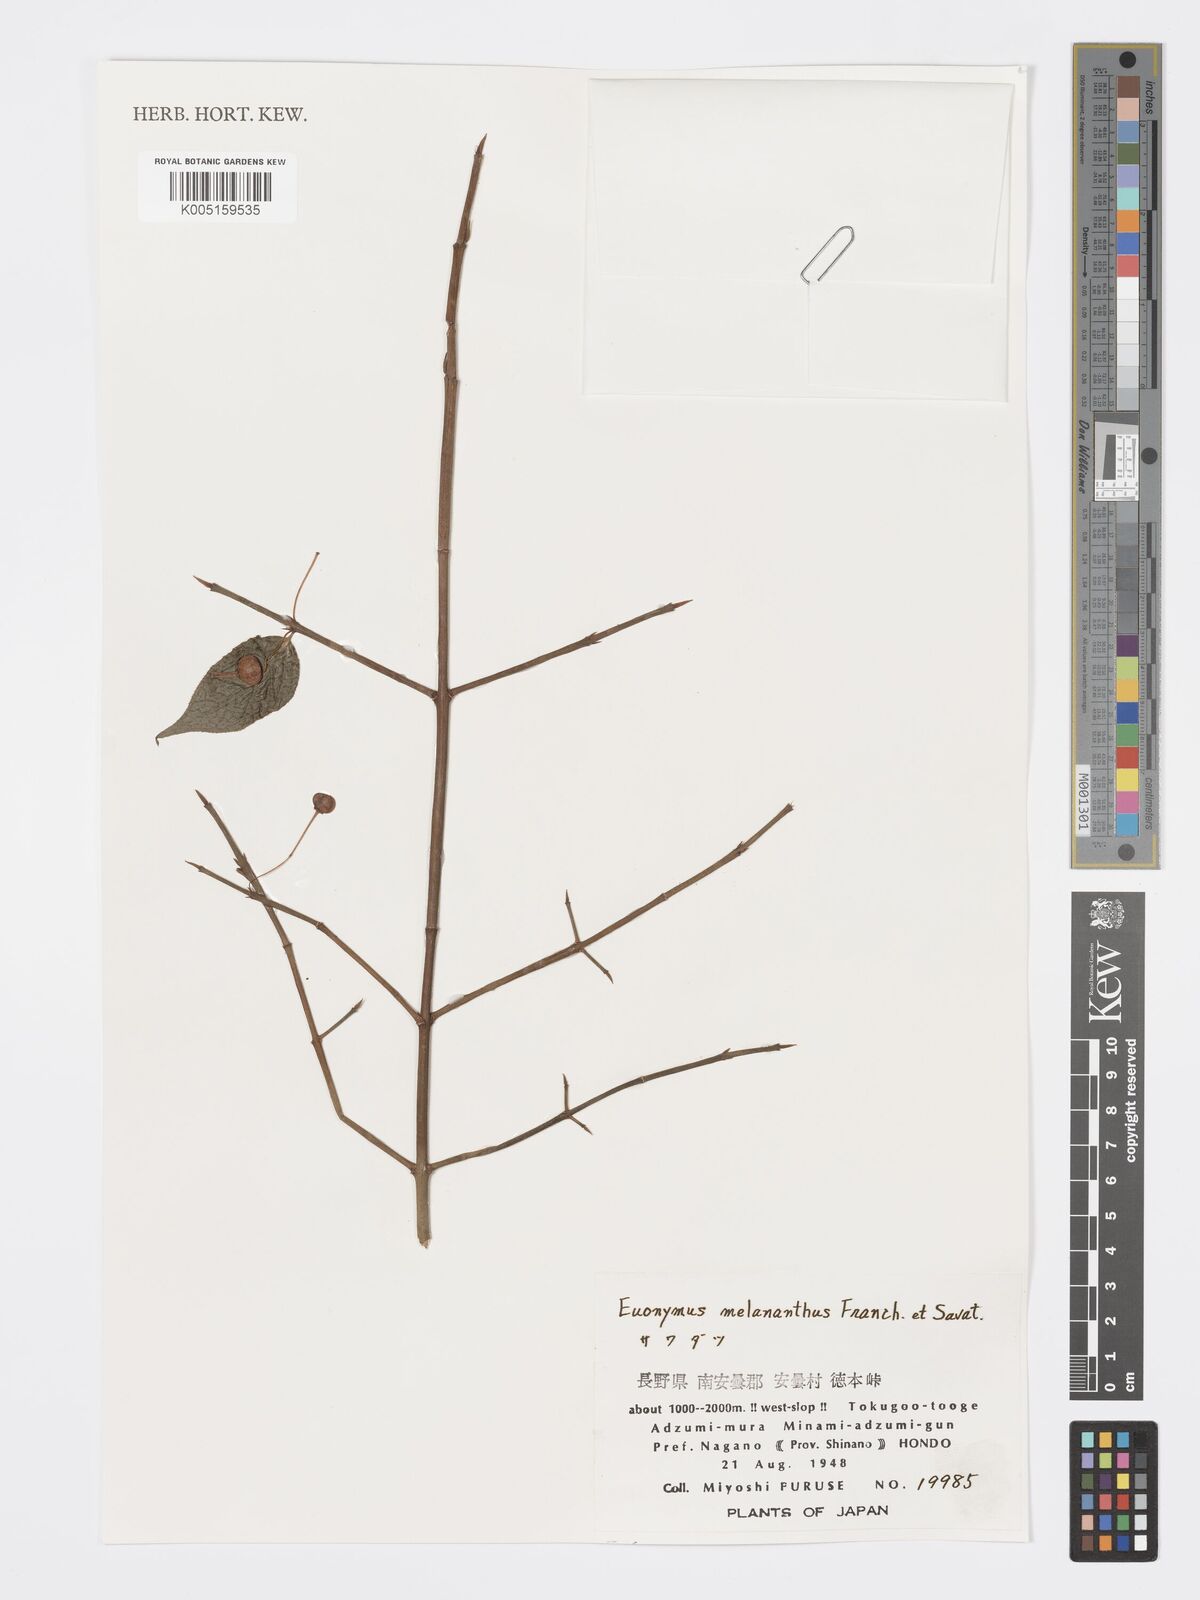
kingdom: Plantae
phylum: Tracheophyta
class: Magnoliopsida
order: Celastrales
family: Celastraceae
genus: Euonymus
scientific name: Euonymus melananthus
